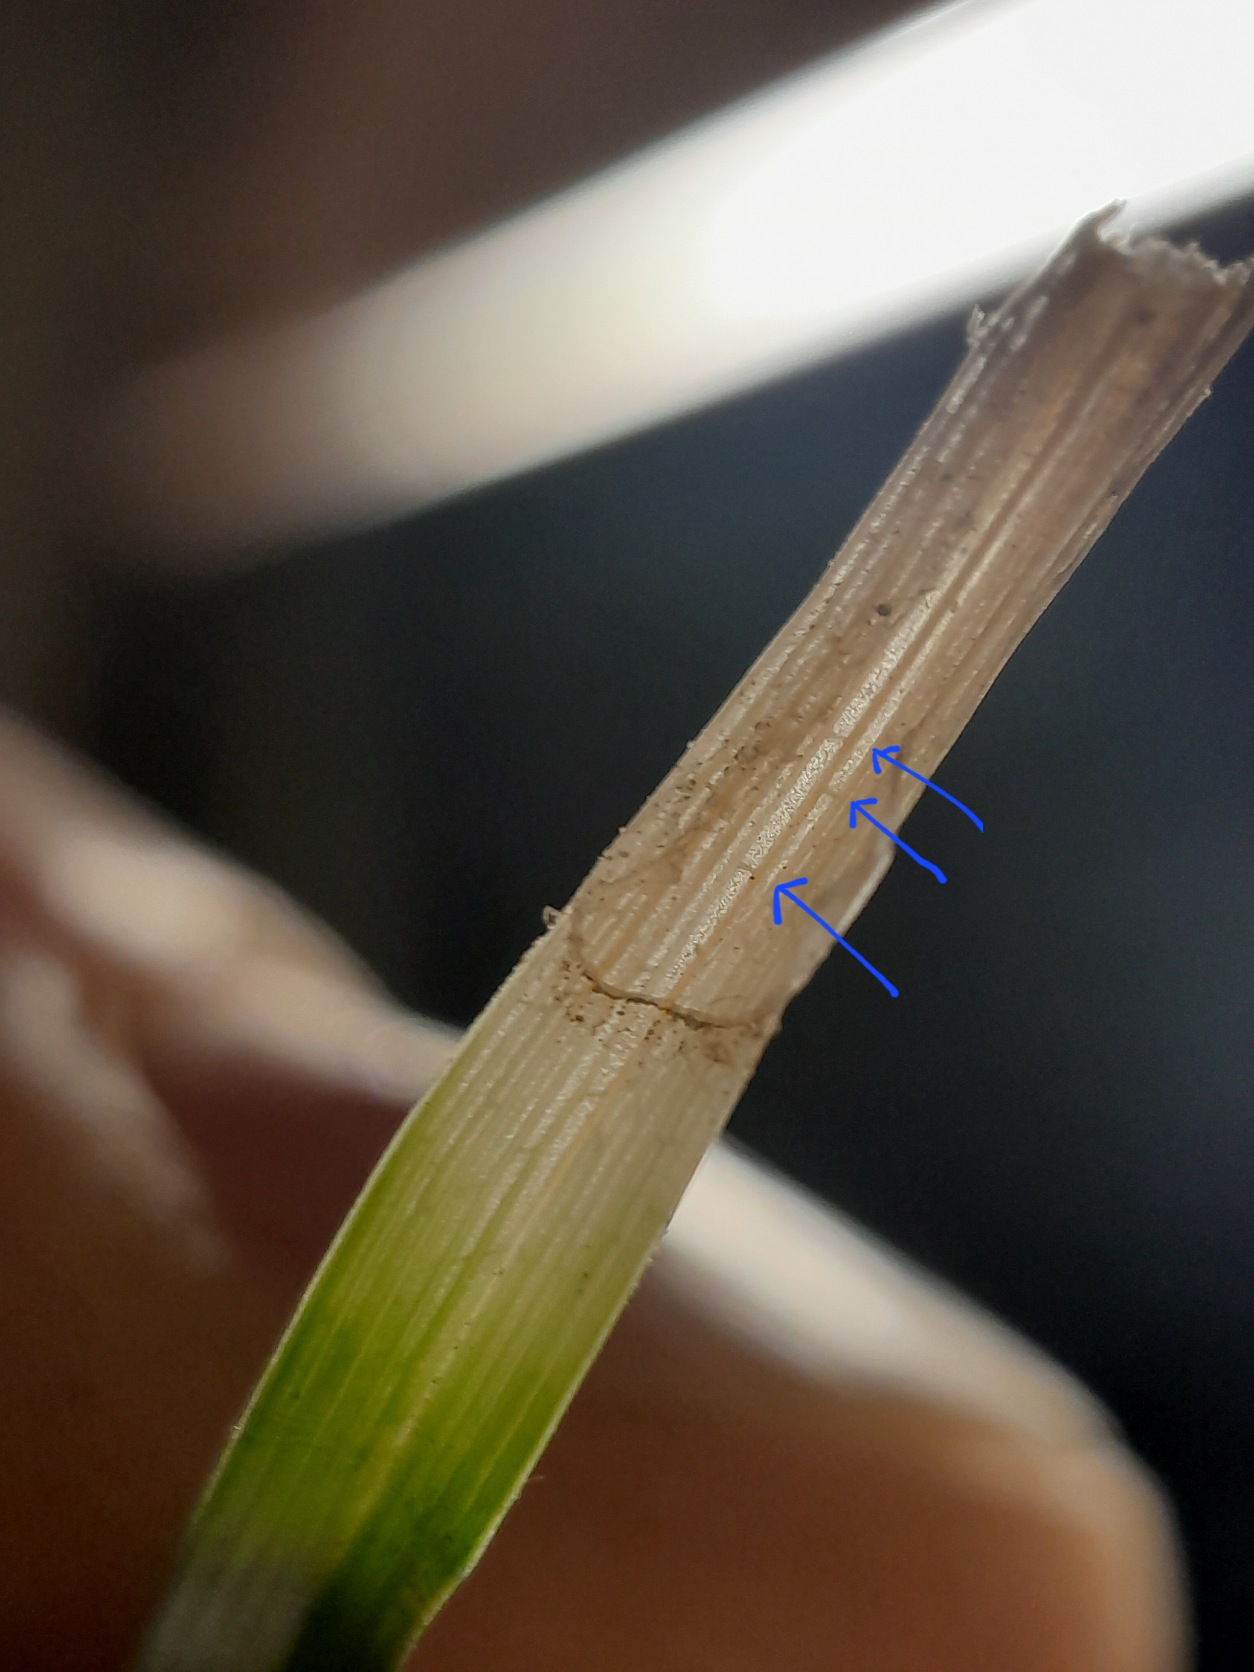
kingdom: Plantae
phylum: Tracheophyta
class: Liliopsida
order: Poales
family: Cyperaceae
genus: Carex
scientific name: Carex caryophyllea
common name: Vår-star
